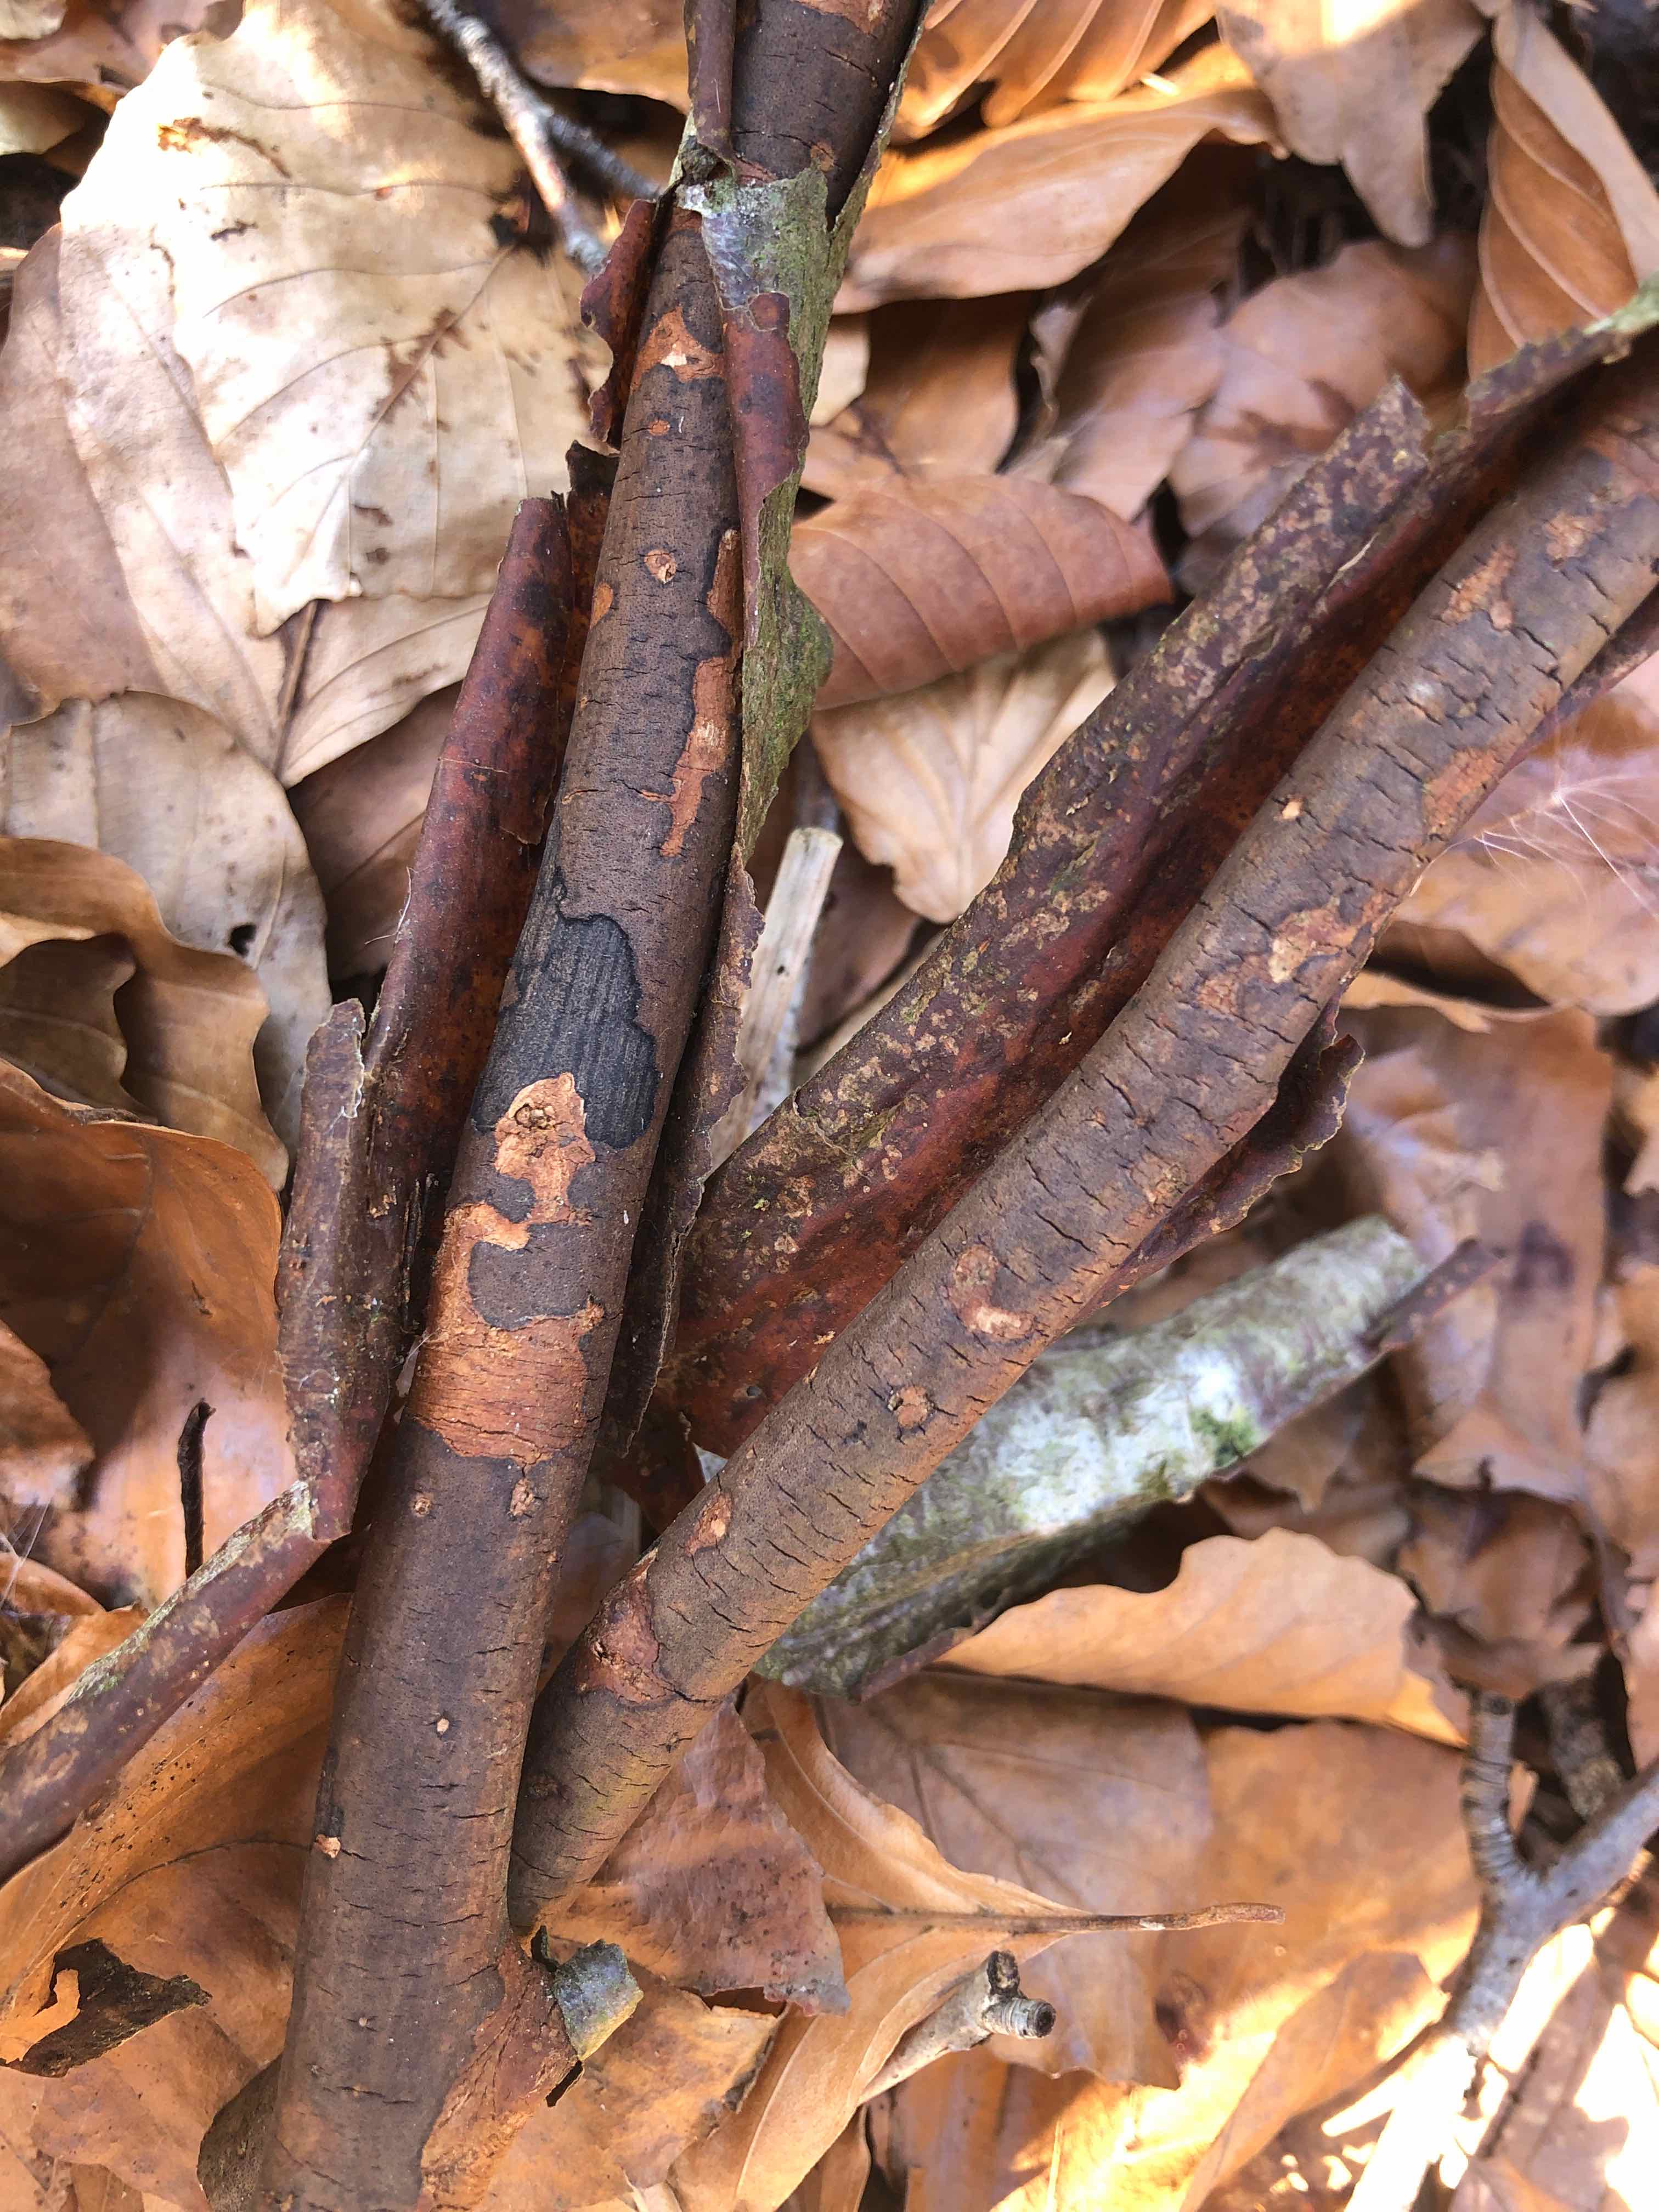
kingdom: Fungi
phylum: Ascomycota
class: Sordariomycetes
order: Xylariales
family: Diatrypaceae
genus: Diatrype
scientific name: Diatrype decorticata
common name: barksprænger-kulskorpe
